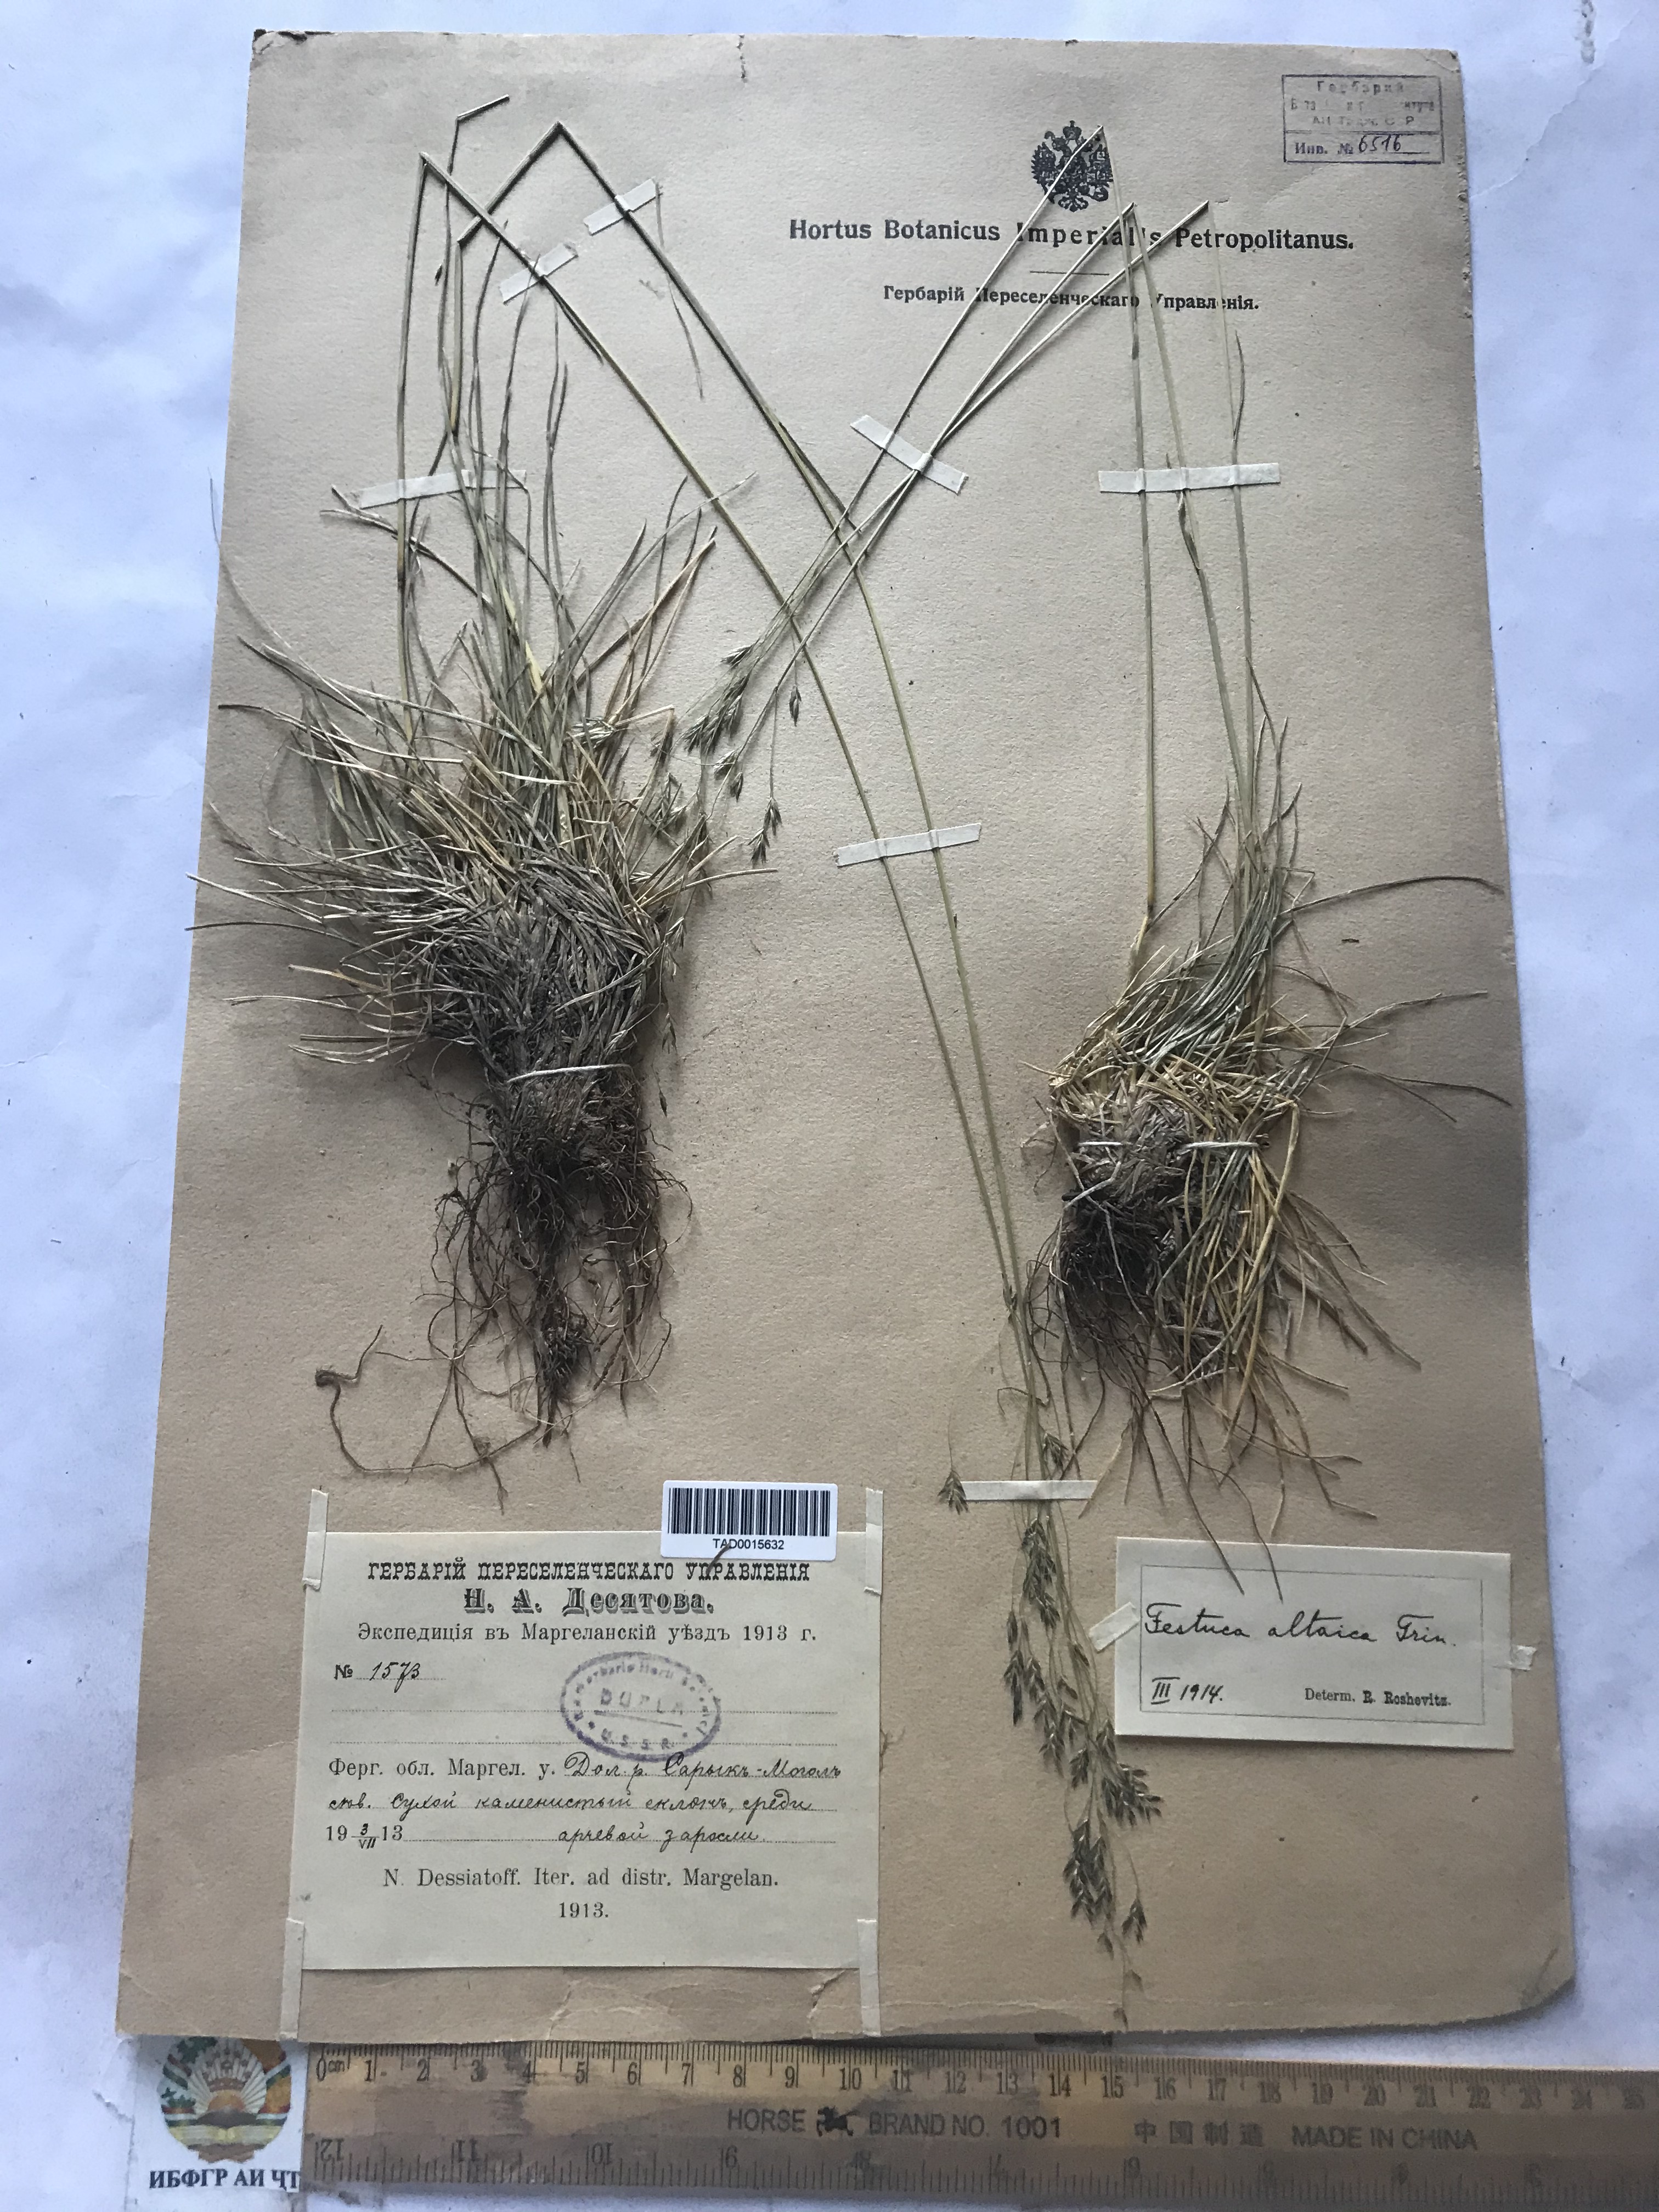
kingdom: Plantae
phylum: Tracheophyta
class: Liliopsida
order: Poales
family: Poaceae
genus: Festuca
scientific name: Festuca altaica
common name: Northern rough fescue
